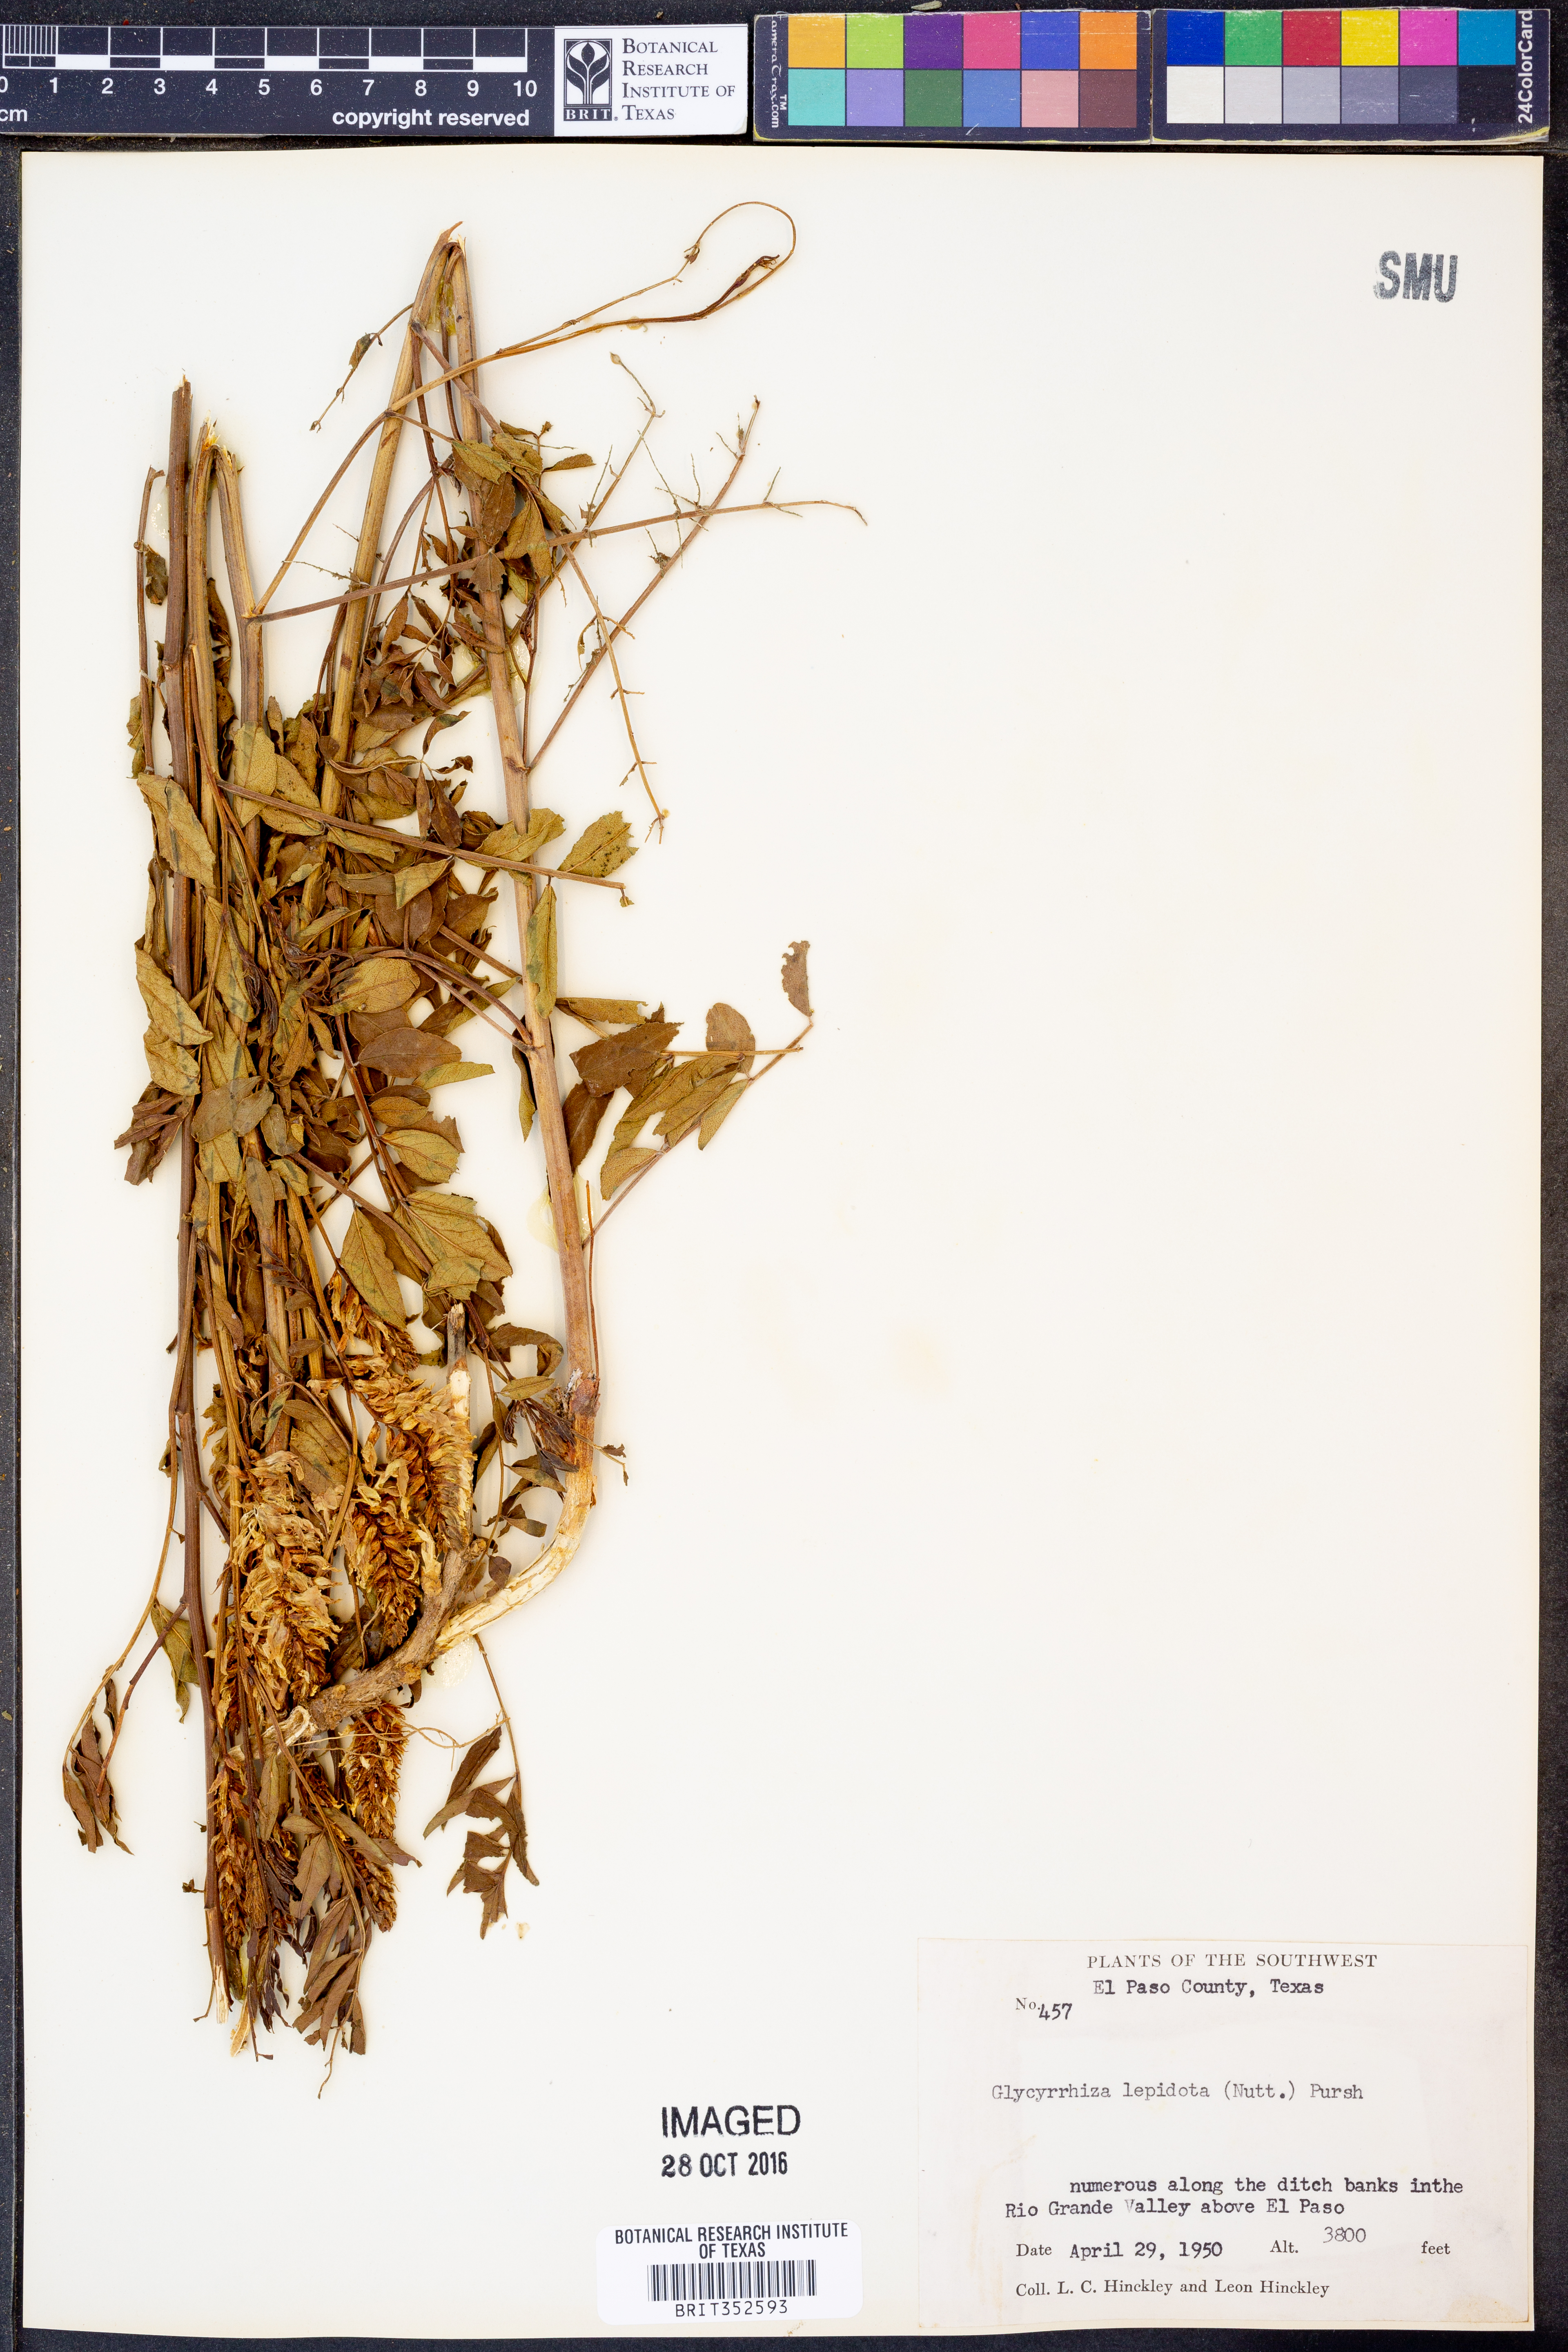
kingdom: Plantae
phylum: Tracheophyta
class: Magnoliopsida
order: Fabales
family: Fabaceae
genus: Glycyrrhiza
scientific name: Glycyrrhiza lepidota
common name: American liquorice
